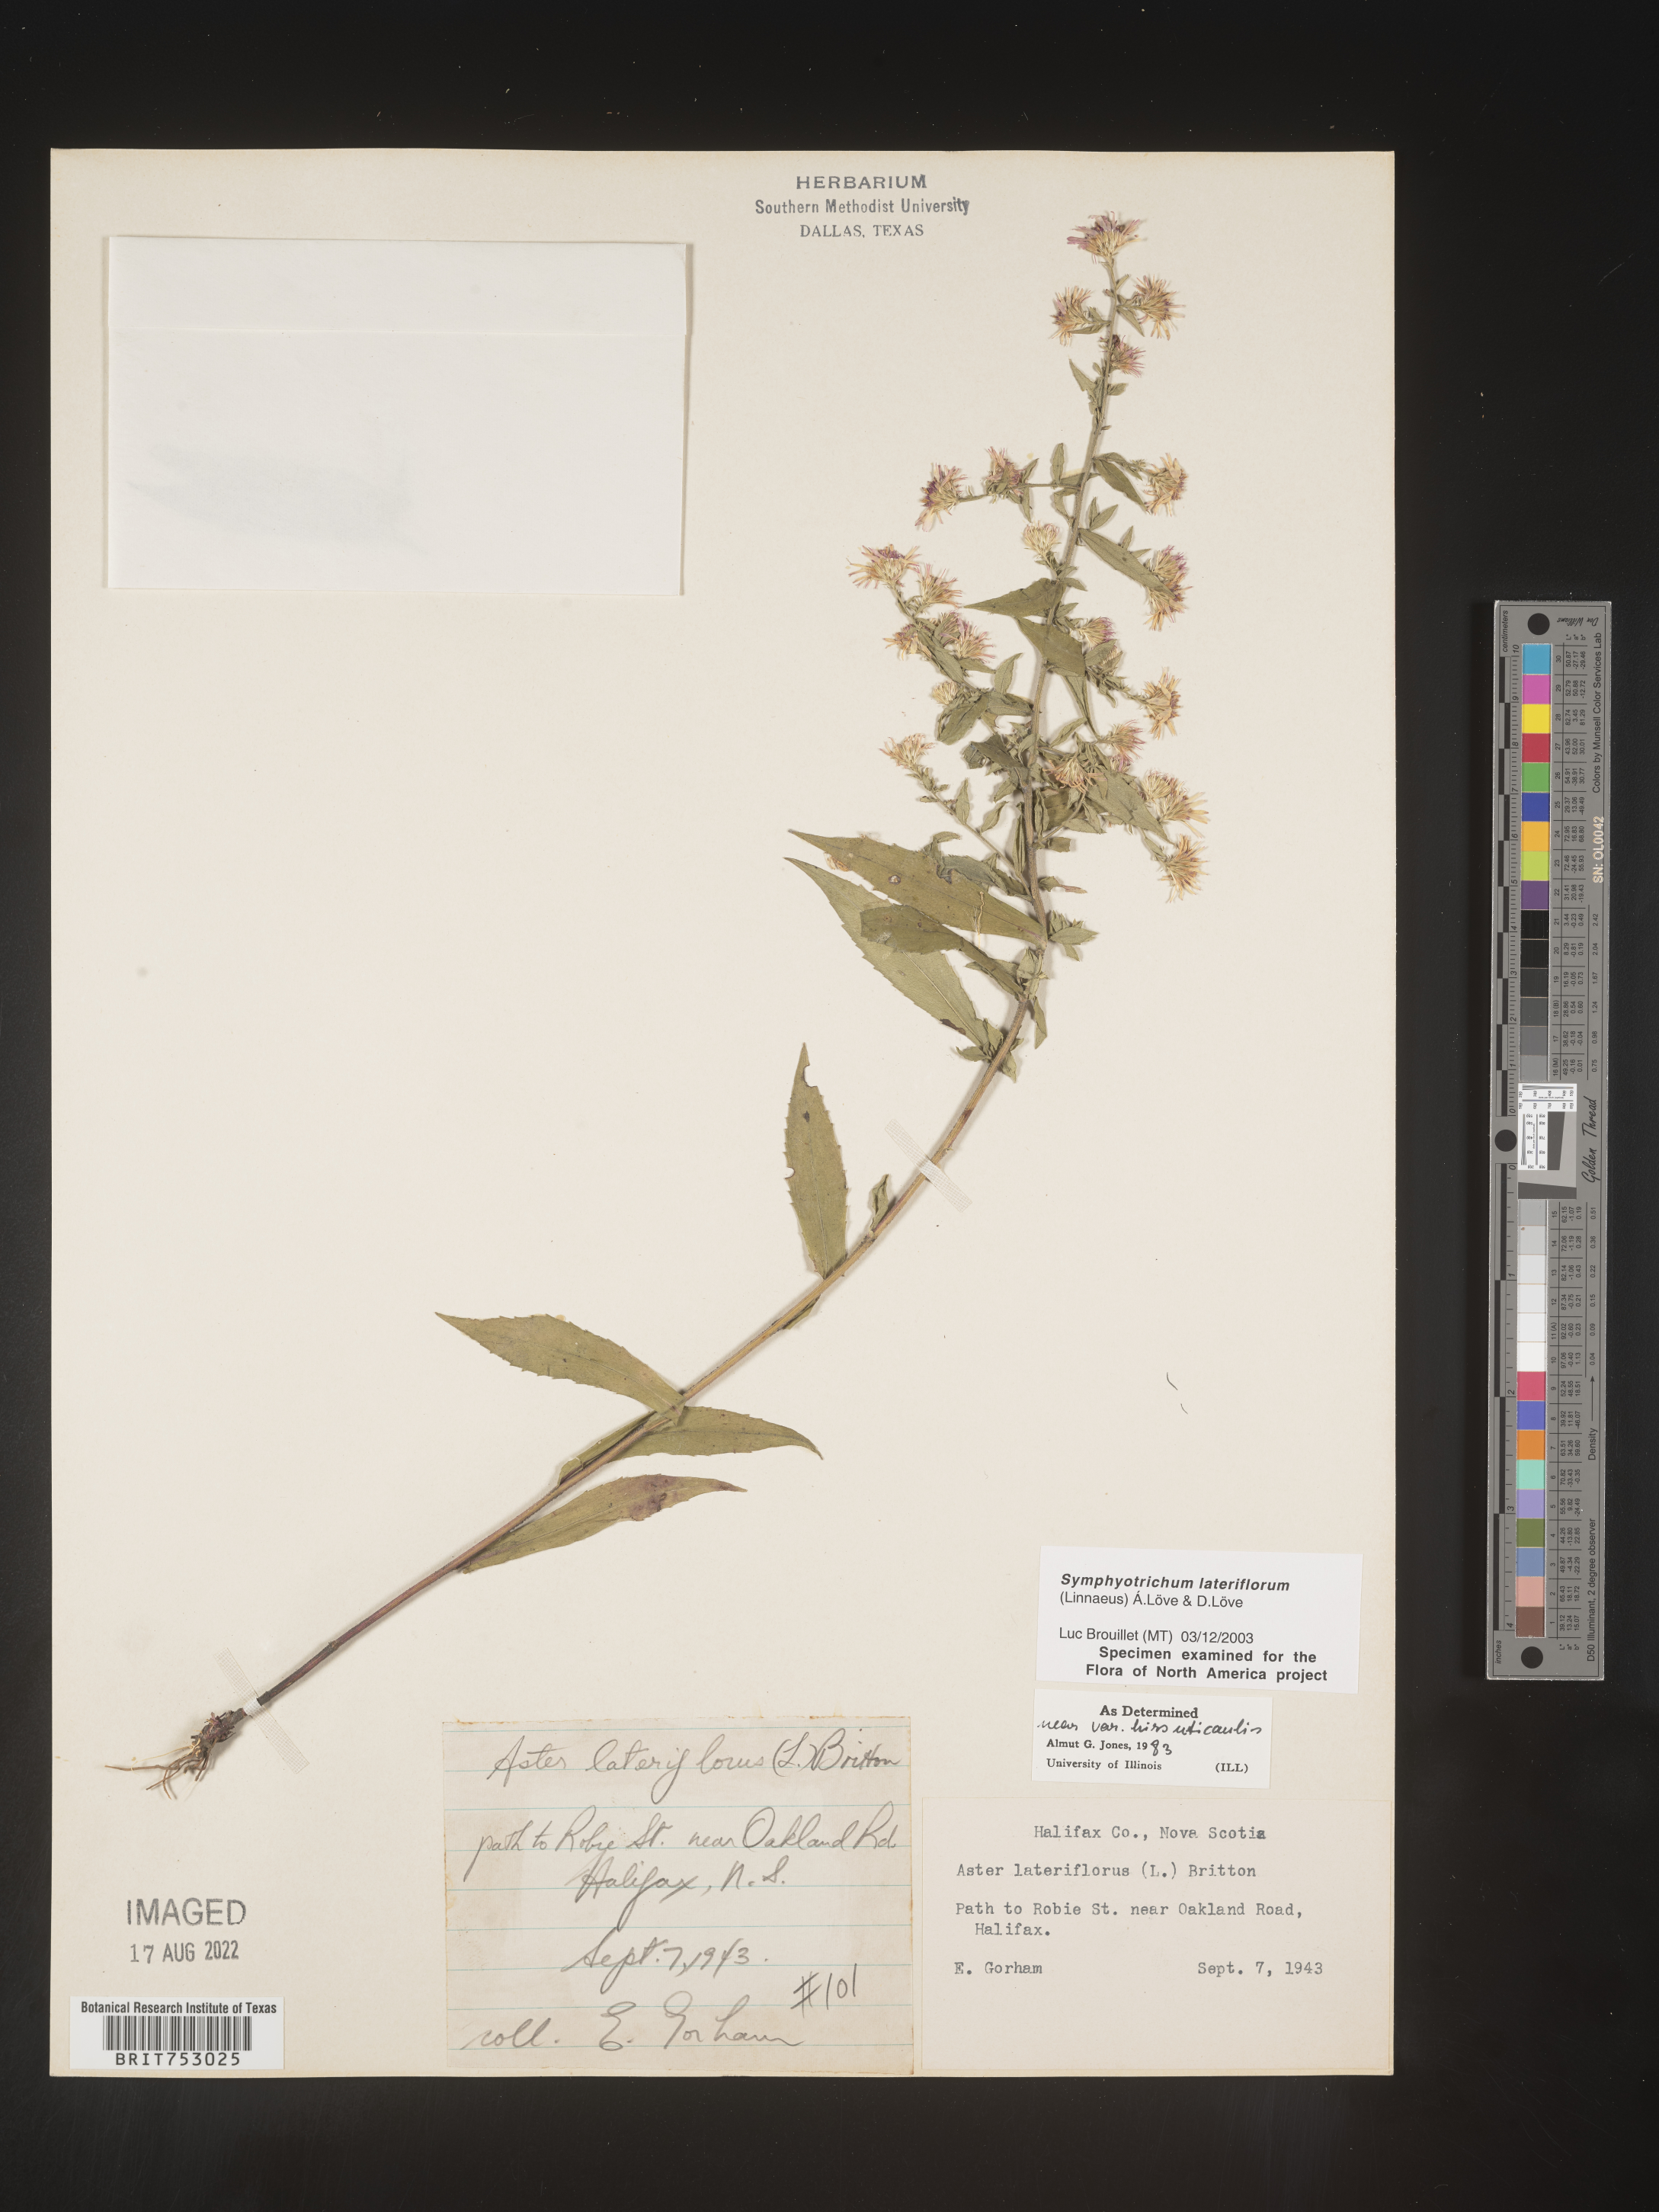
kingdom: Plantae
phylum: Tracheophyta
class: Magnoliopsida
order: Asterales
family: Asteraceae
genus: Symphyotrichum
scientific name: Symphyotrichum lateriflorum
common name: Calico aster
